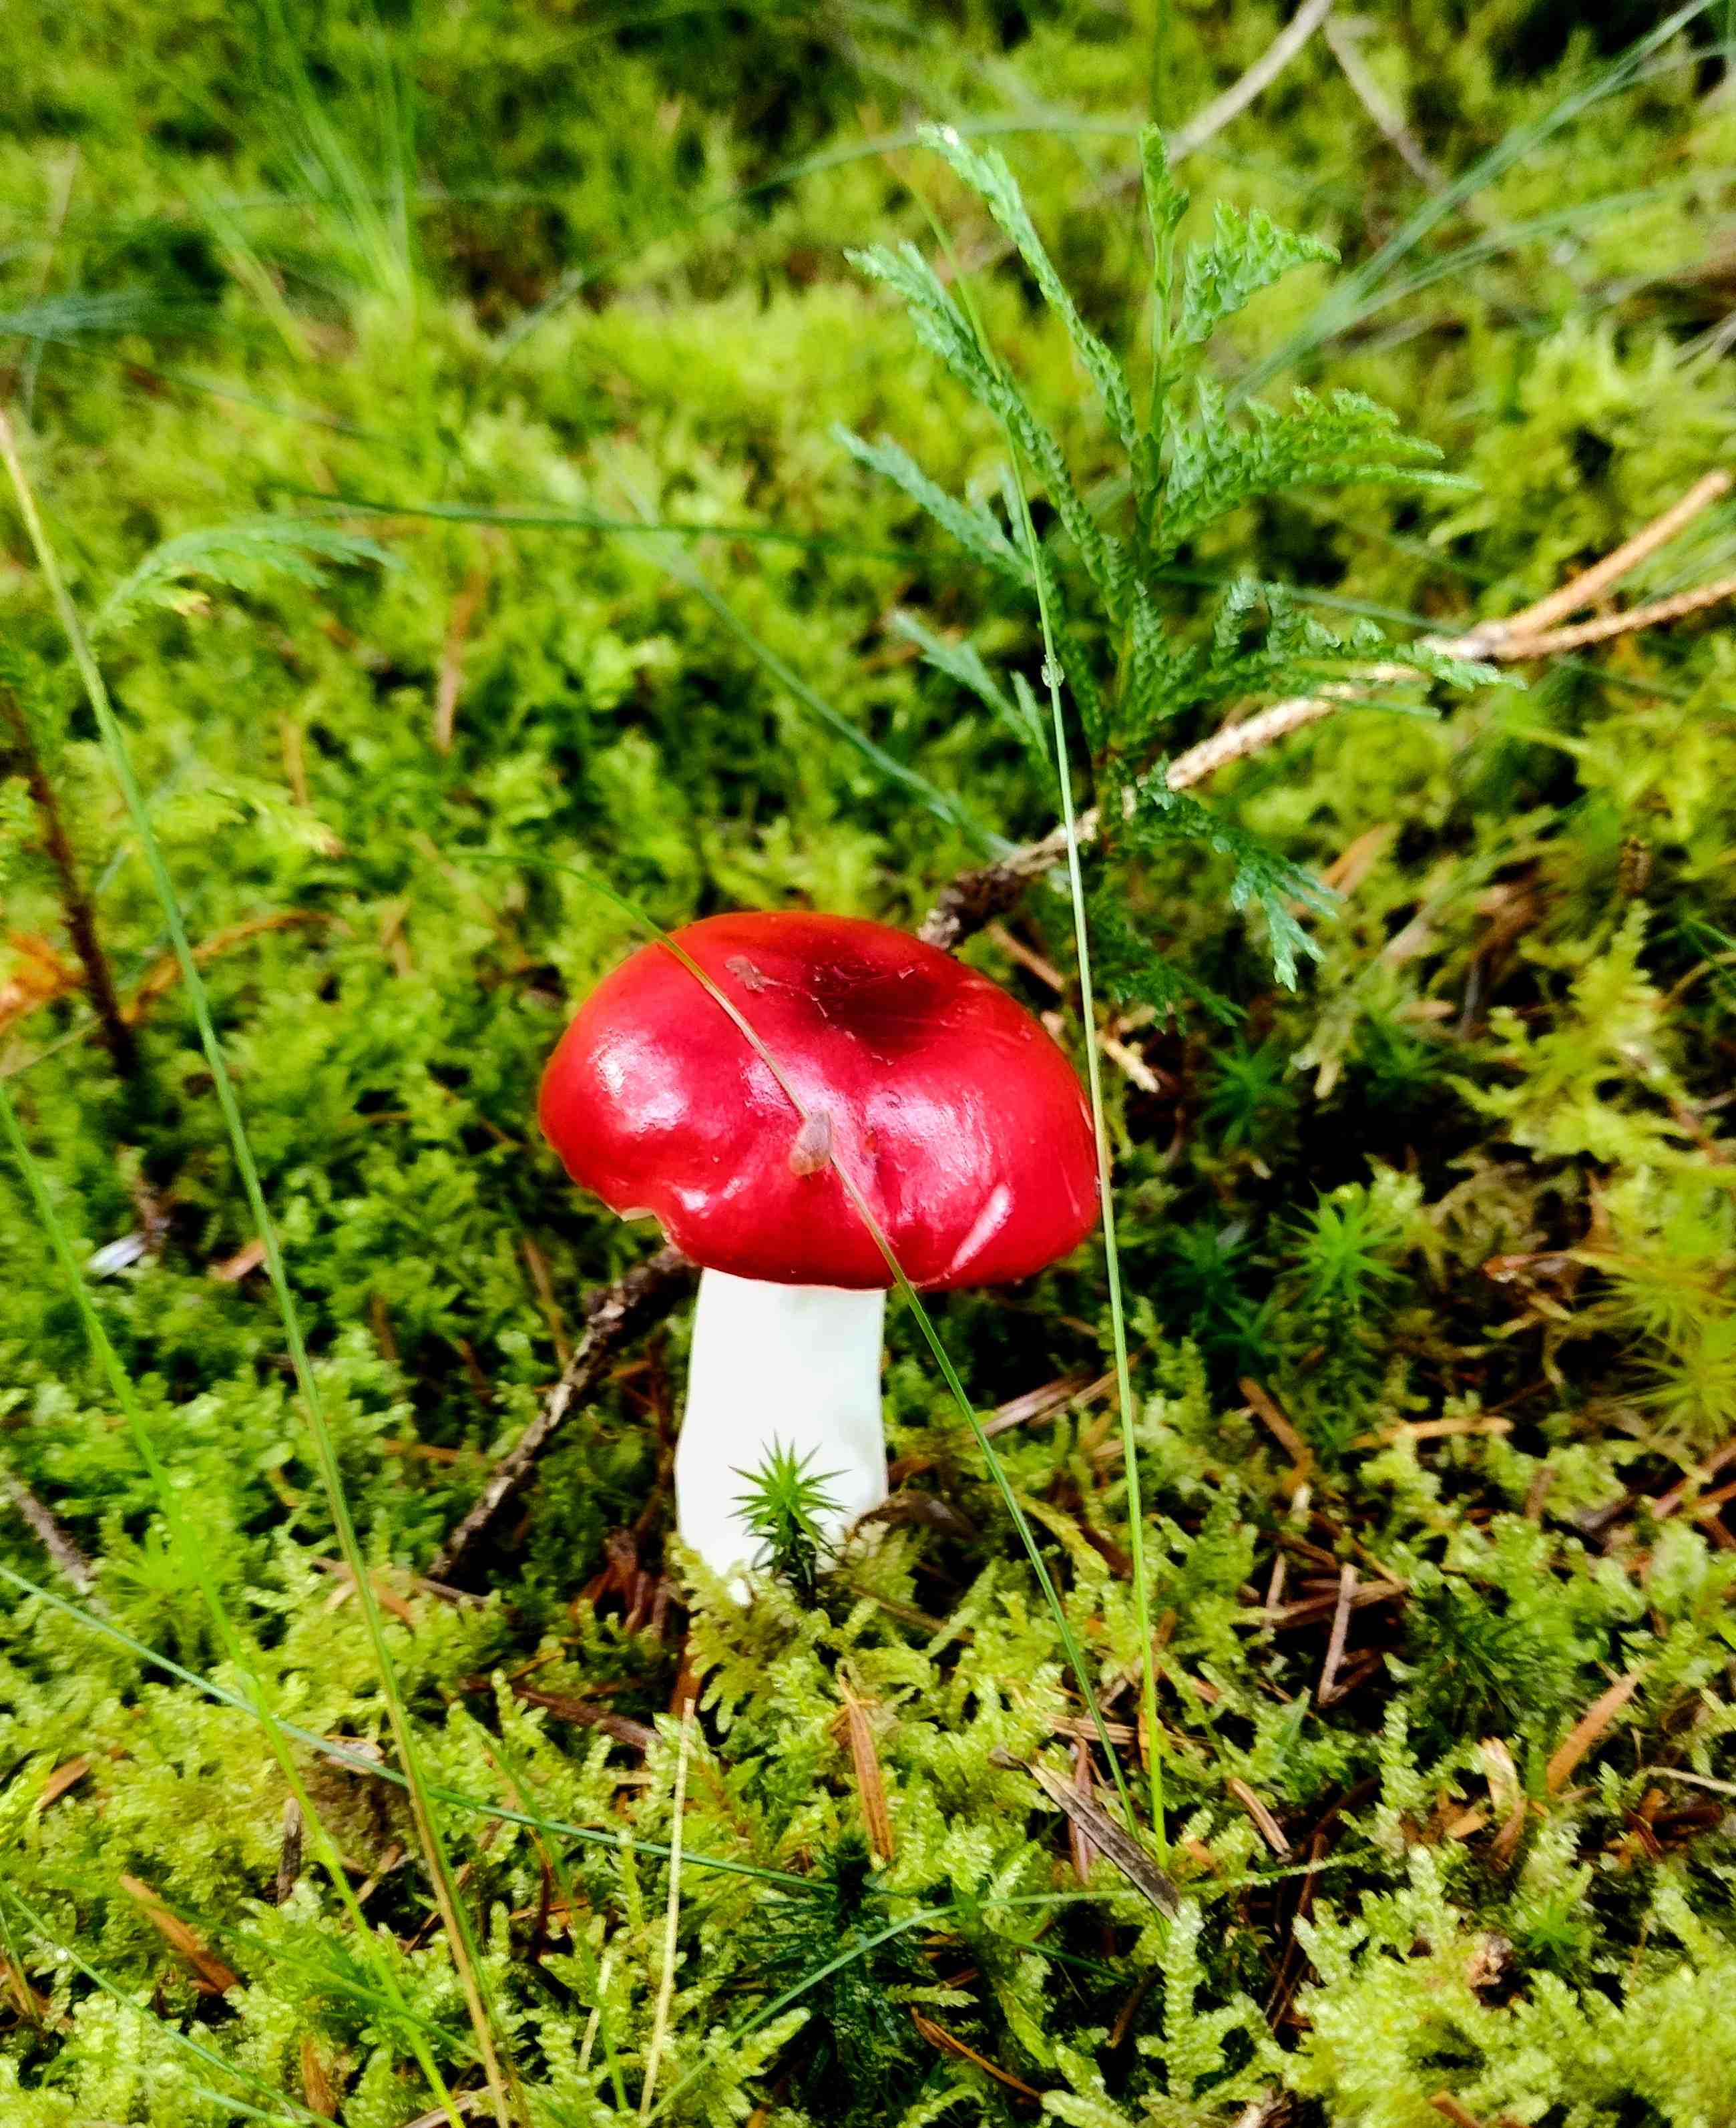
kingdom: Fungi
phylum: Basidiomycota
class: Agaricomycetes
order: Russulales
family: Russulaceae
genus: Russula
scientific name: Russula emetica
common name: stor gift-skørhat
